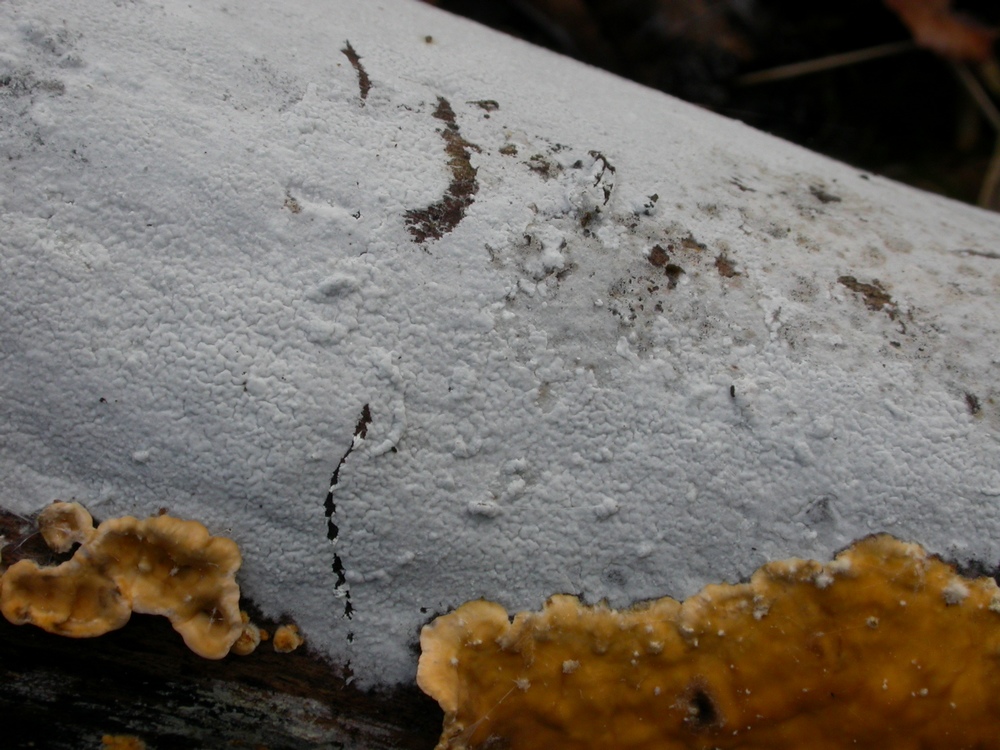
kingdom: Fungi
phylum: Basidiomycota
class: Agaricomycetes
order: Atheliales
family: Atheliaceae
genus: Athelia
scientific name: Athelia epiphylla
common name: almindelig barkhinde
